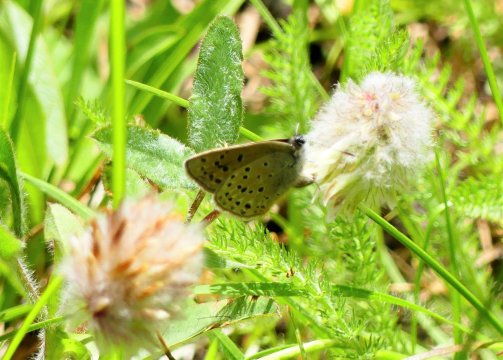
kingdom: Animalia
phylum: Arthropoda
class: Insecta
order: Lepidoptera
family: Lycaenidae
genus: Lycaena
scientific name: Lycaena xanthoides
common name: Great Copper
